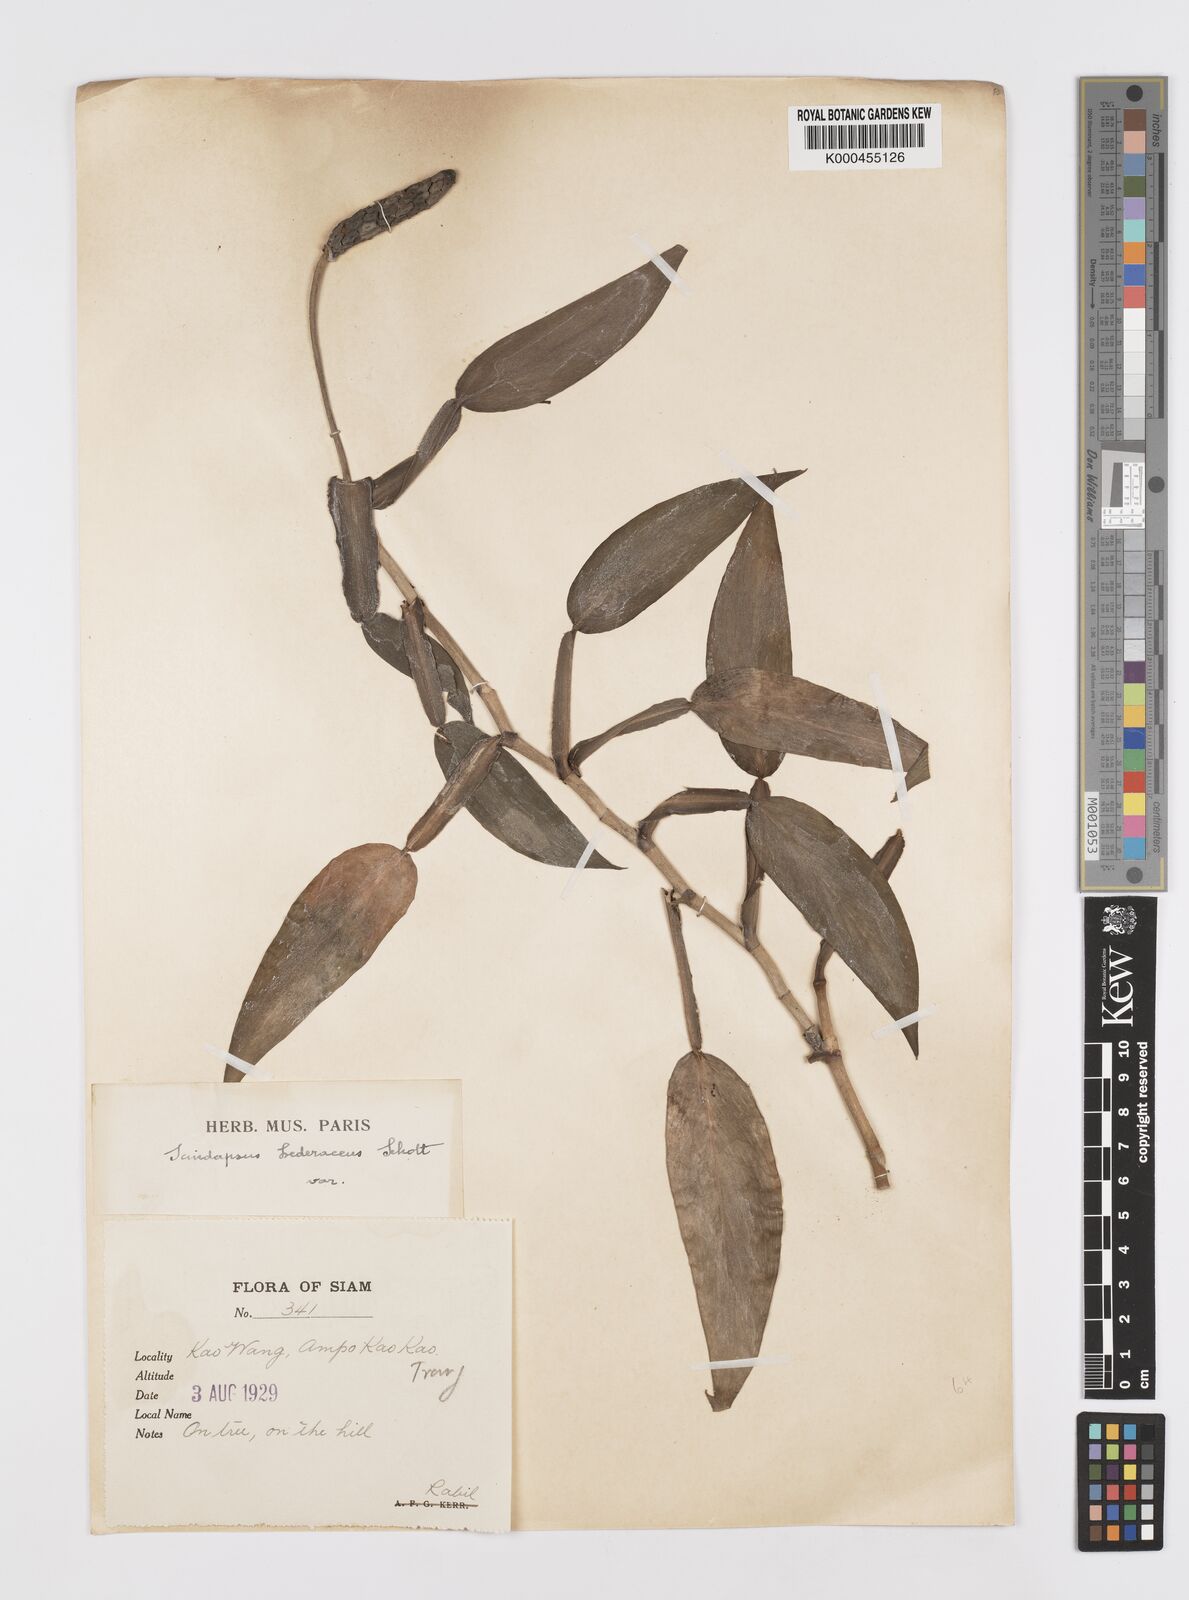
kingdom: Plantae
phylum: Tracheophyta
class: Liliopsida
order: Alismatales
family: Araceae
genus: Scindapsus
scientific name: Scindapsus hederaceus
